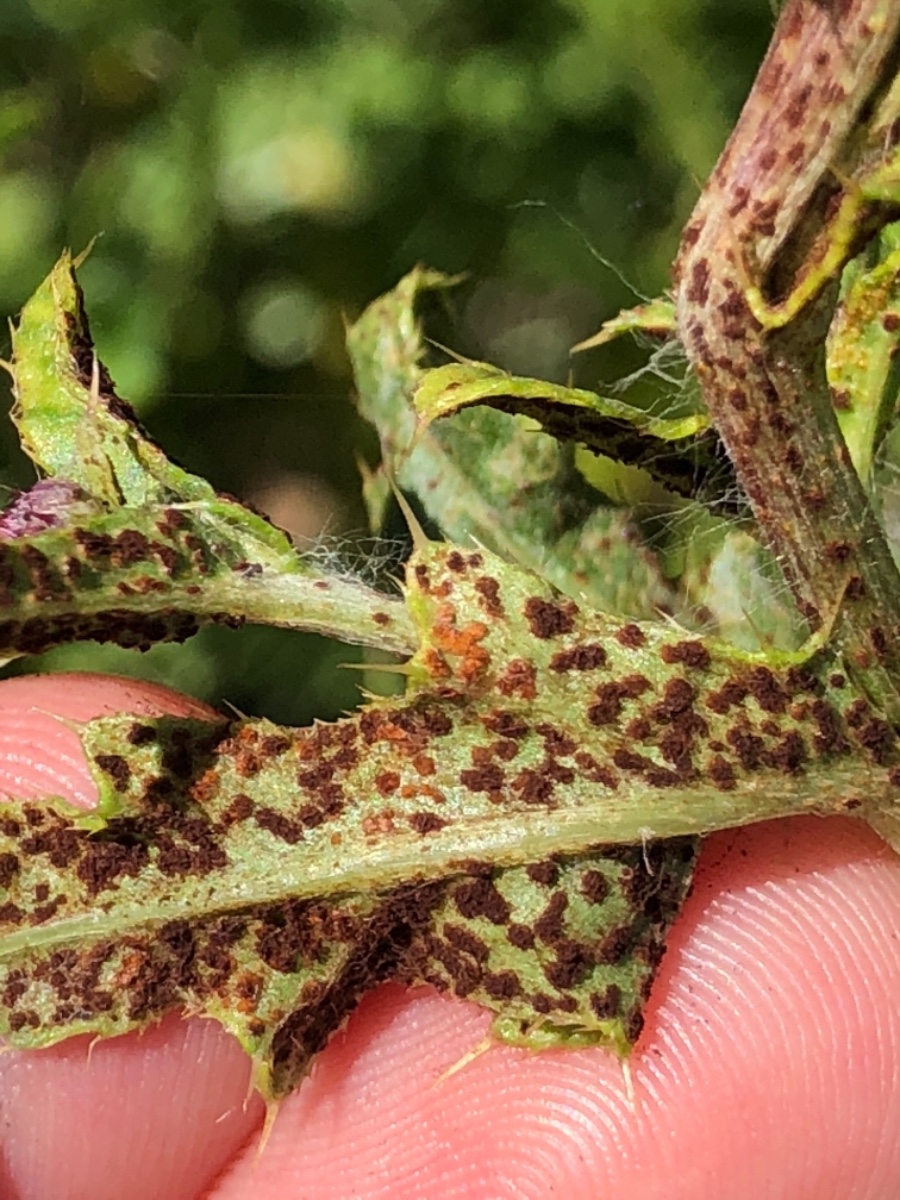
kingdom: Fungi
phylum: Basidiomycota
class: Pucciniomycetes
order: Pucciniales
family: Pucciniaceae
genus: Puccinia
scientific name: Puccinia suaveolens
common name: tidsel-tvecellerust
